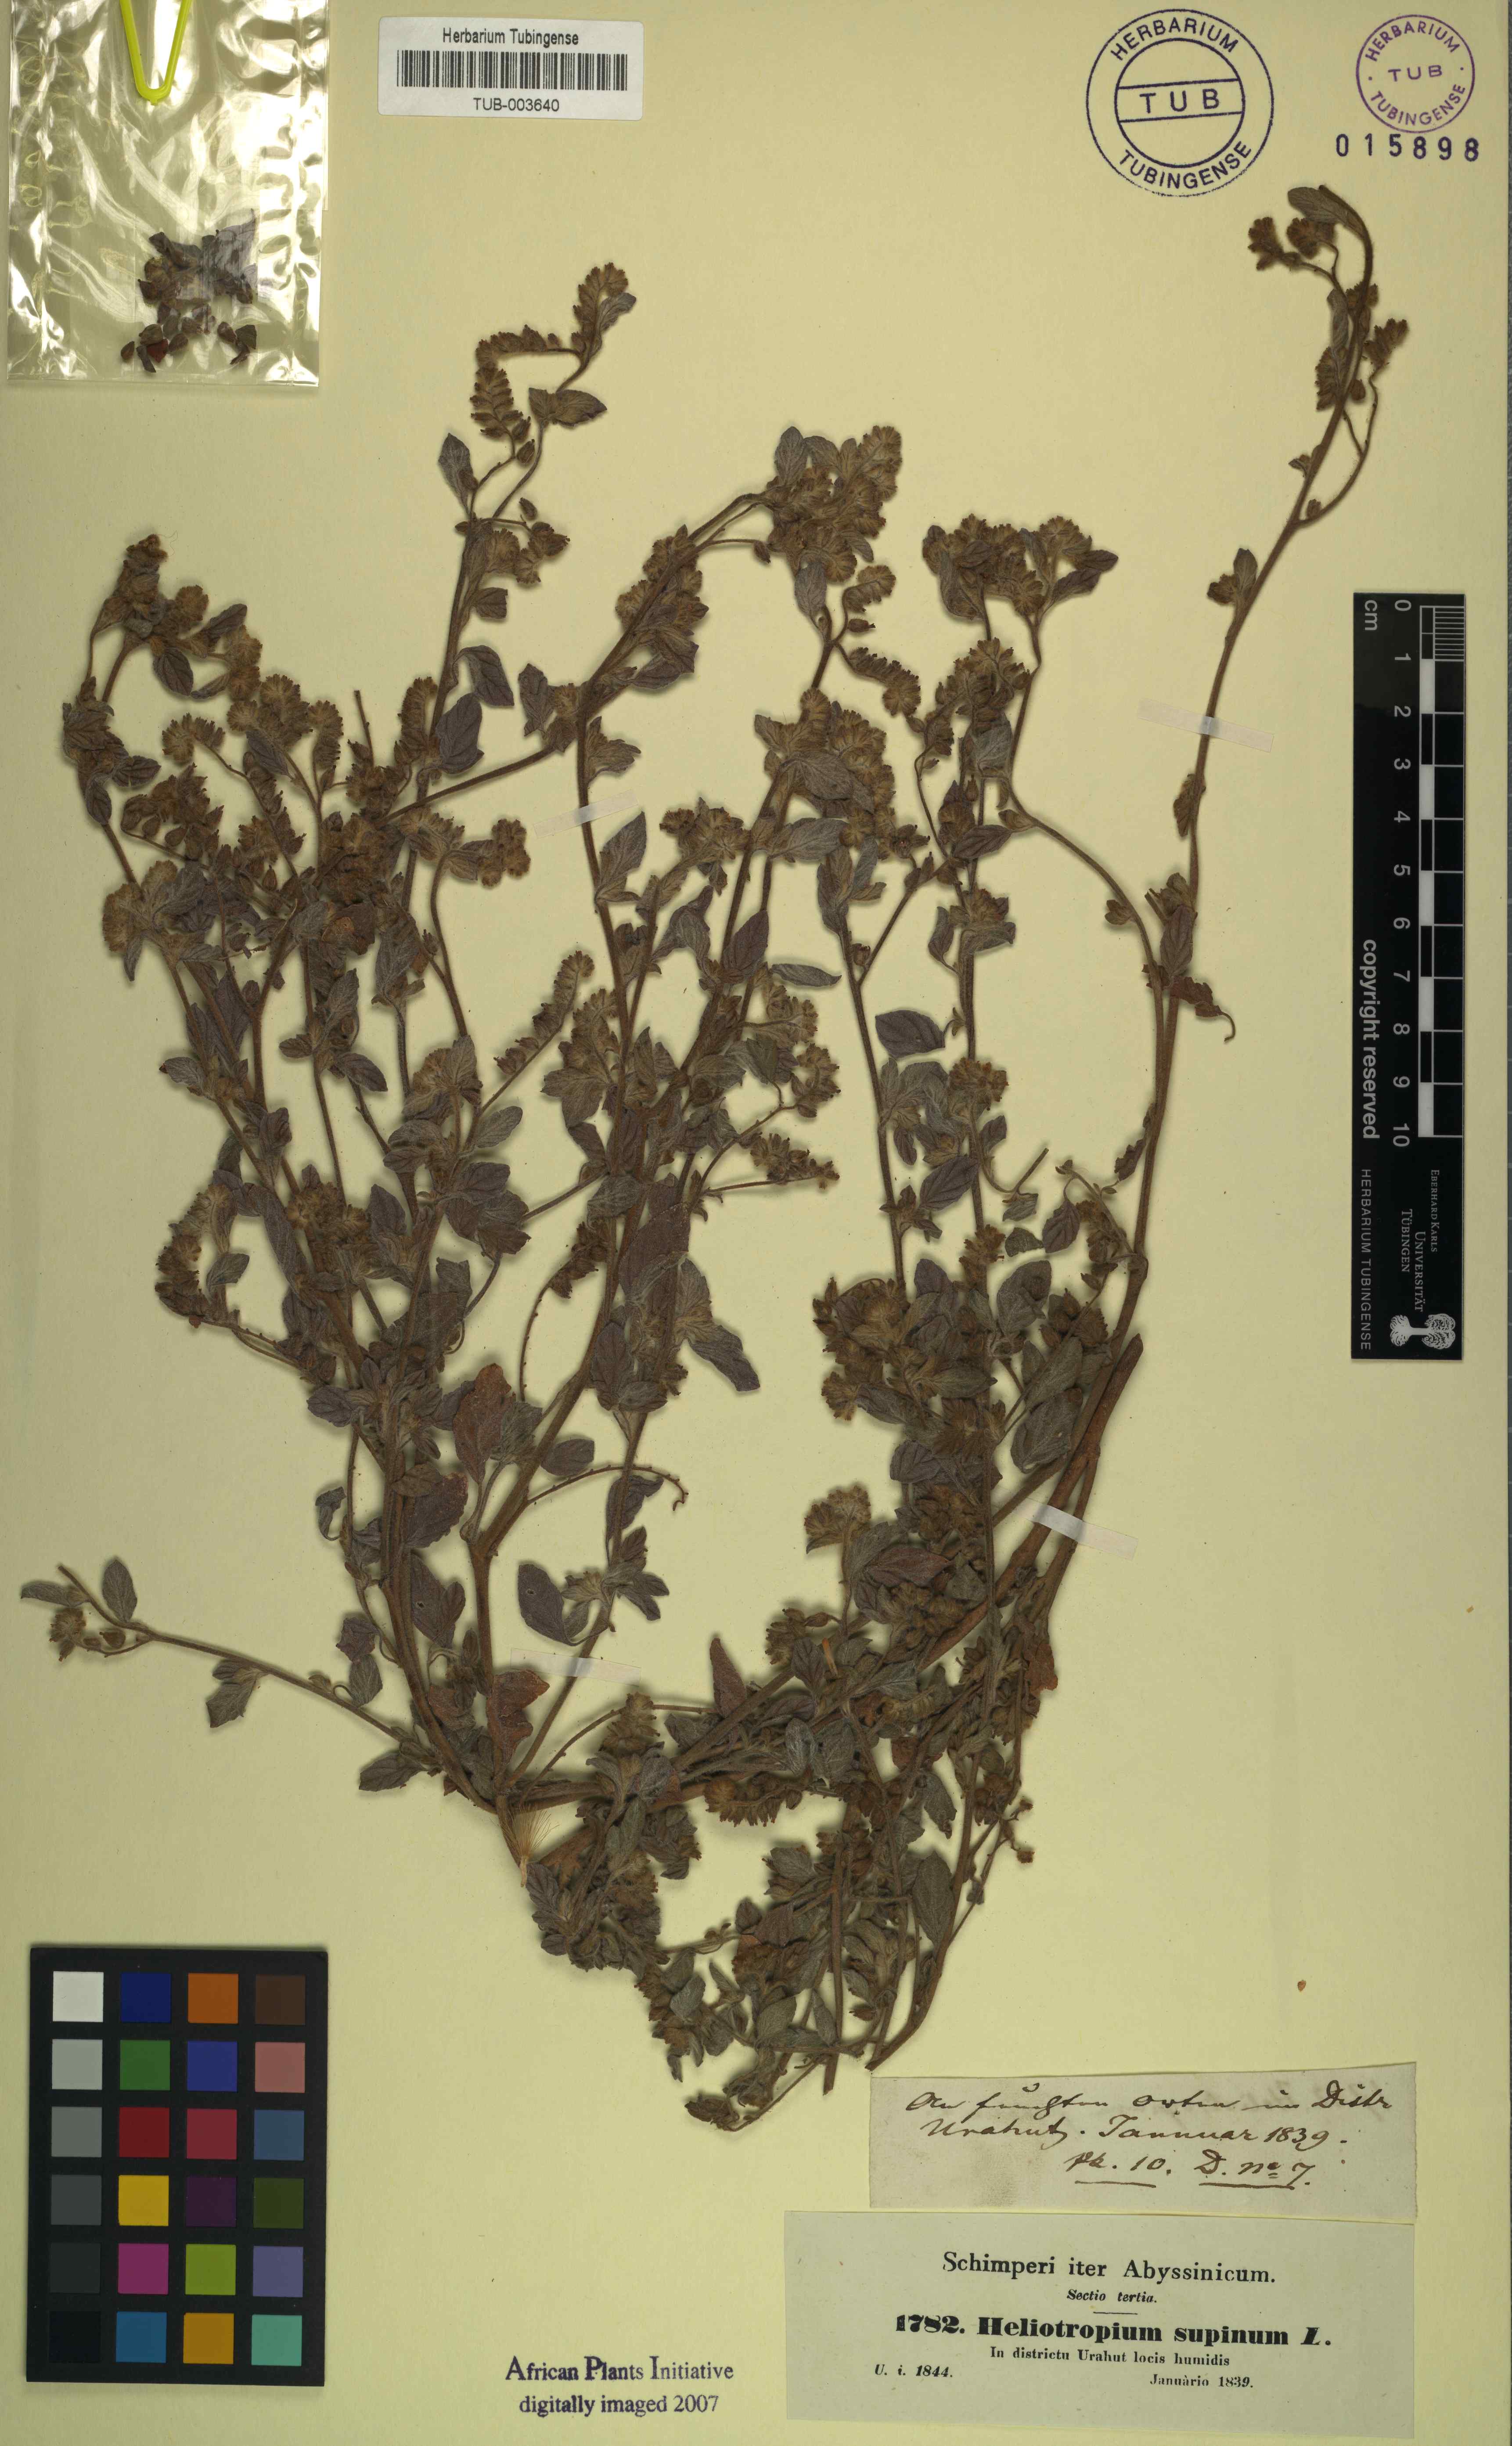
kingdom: Plantae
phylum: Tracheophyta
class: Magnoliopsida
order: Boraginales
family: Heliotropiaceae
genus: Heliotropium
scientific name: Heliotropium supinum
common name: Dwarf heliotrope
